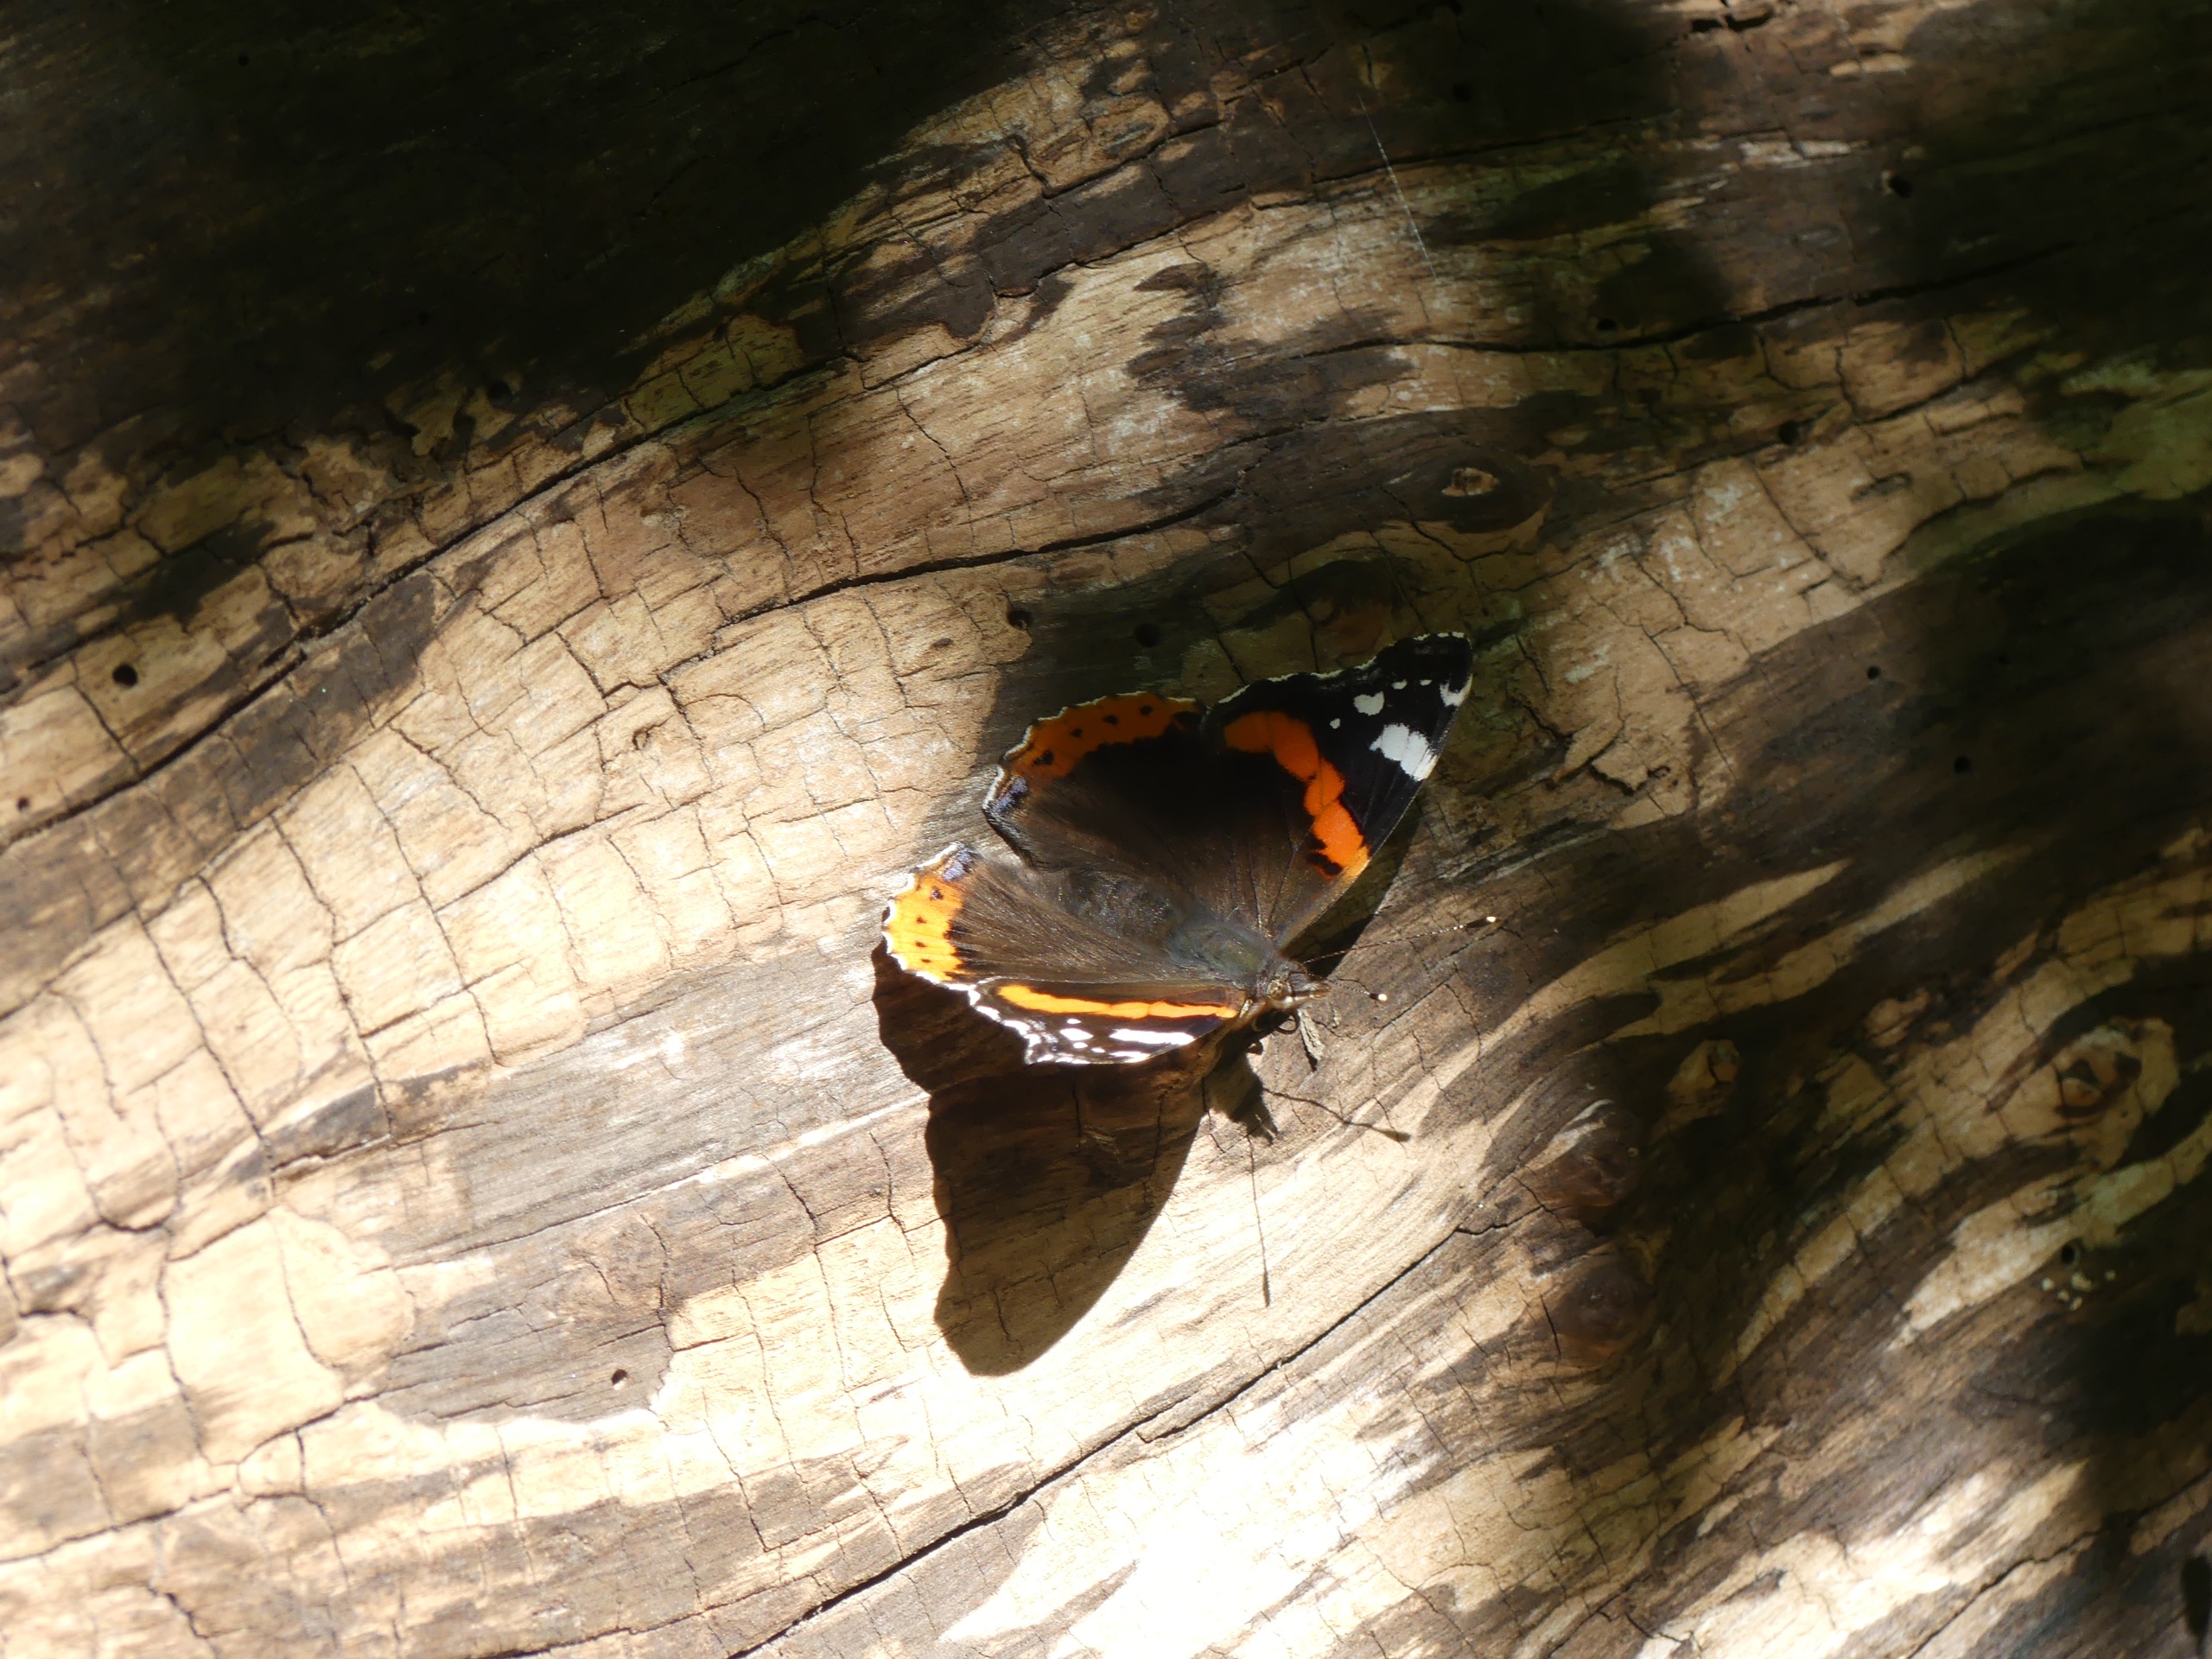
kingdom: Animalia
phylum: Arthropoda
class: Insecta
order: Lepidoptera
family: Nymphalidae
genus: Vanessa
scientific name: Vanessa atalanta
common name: Admiral
